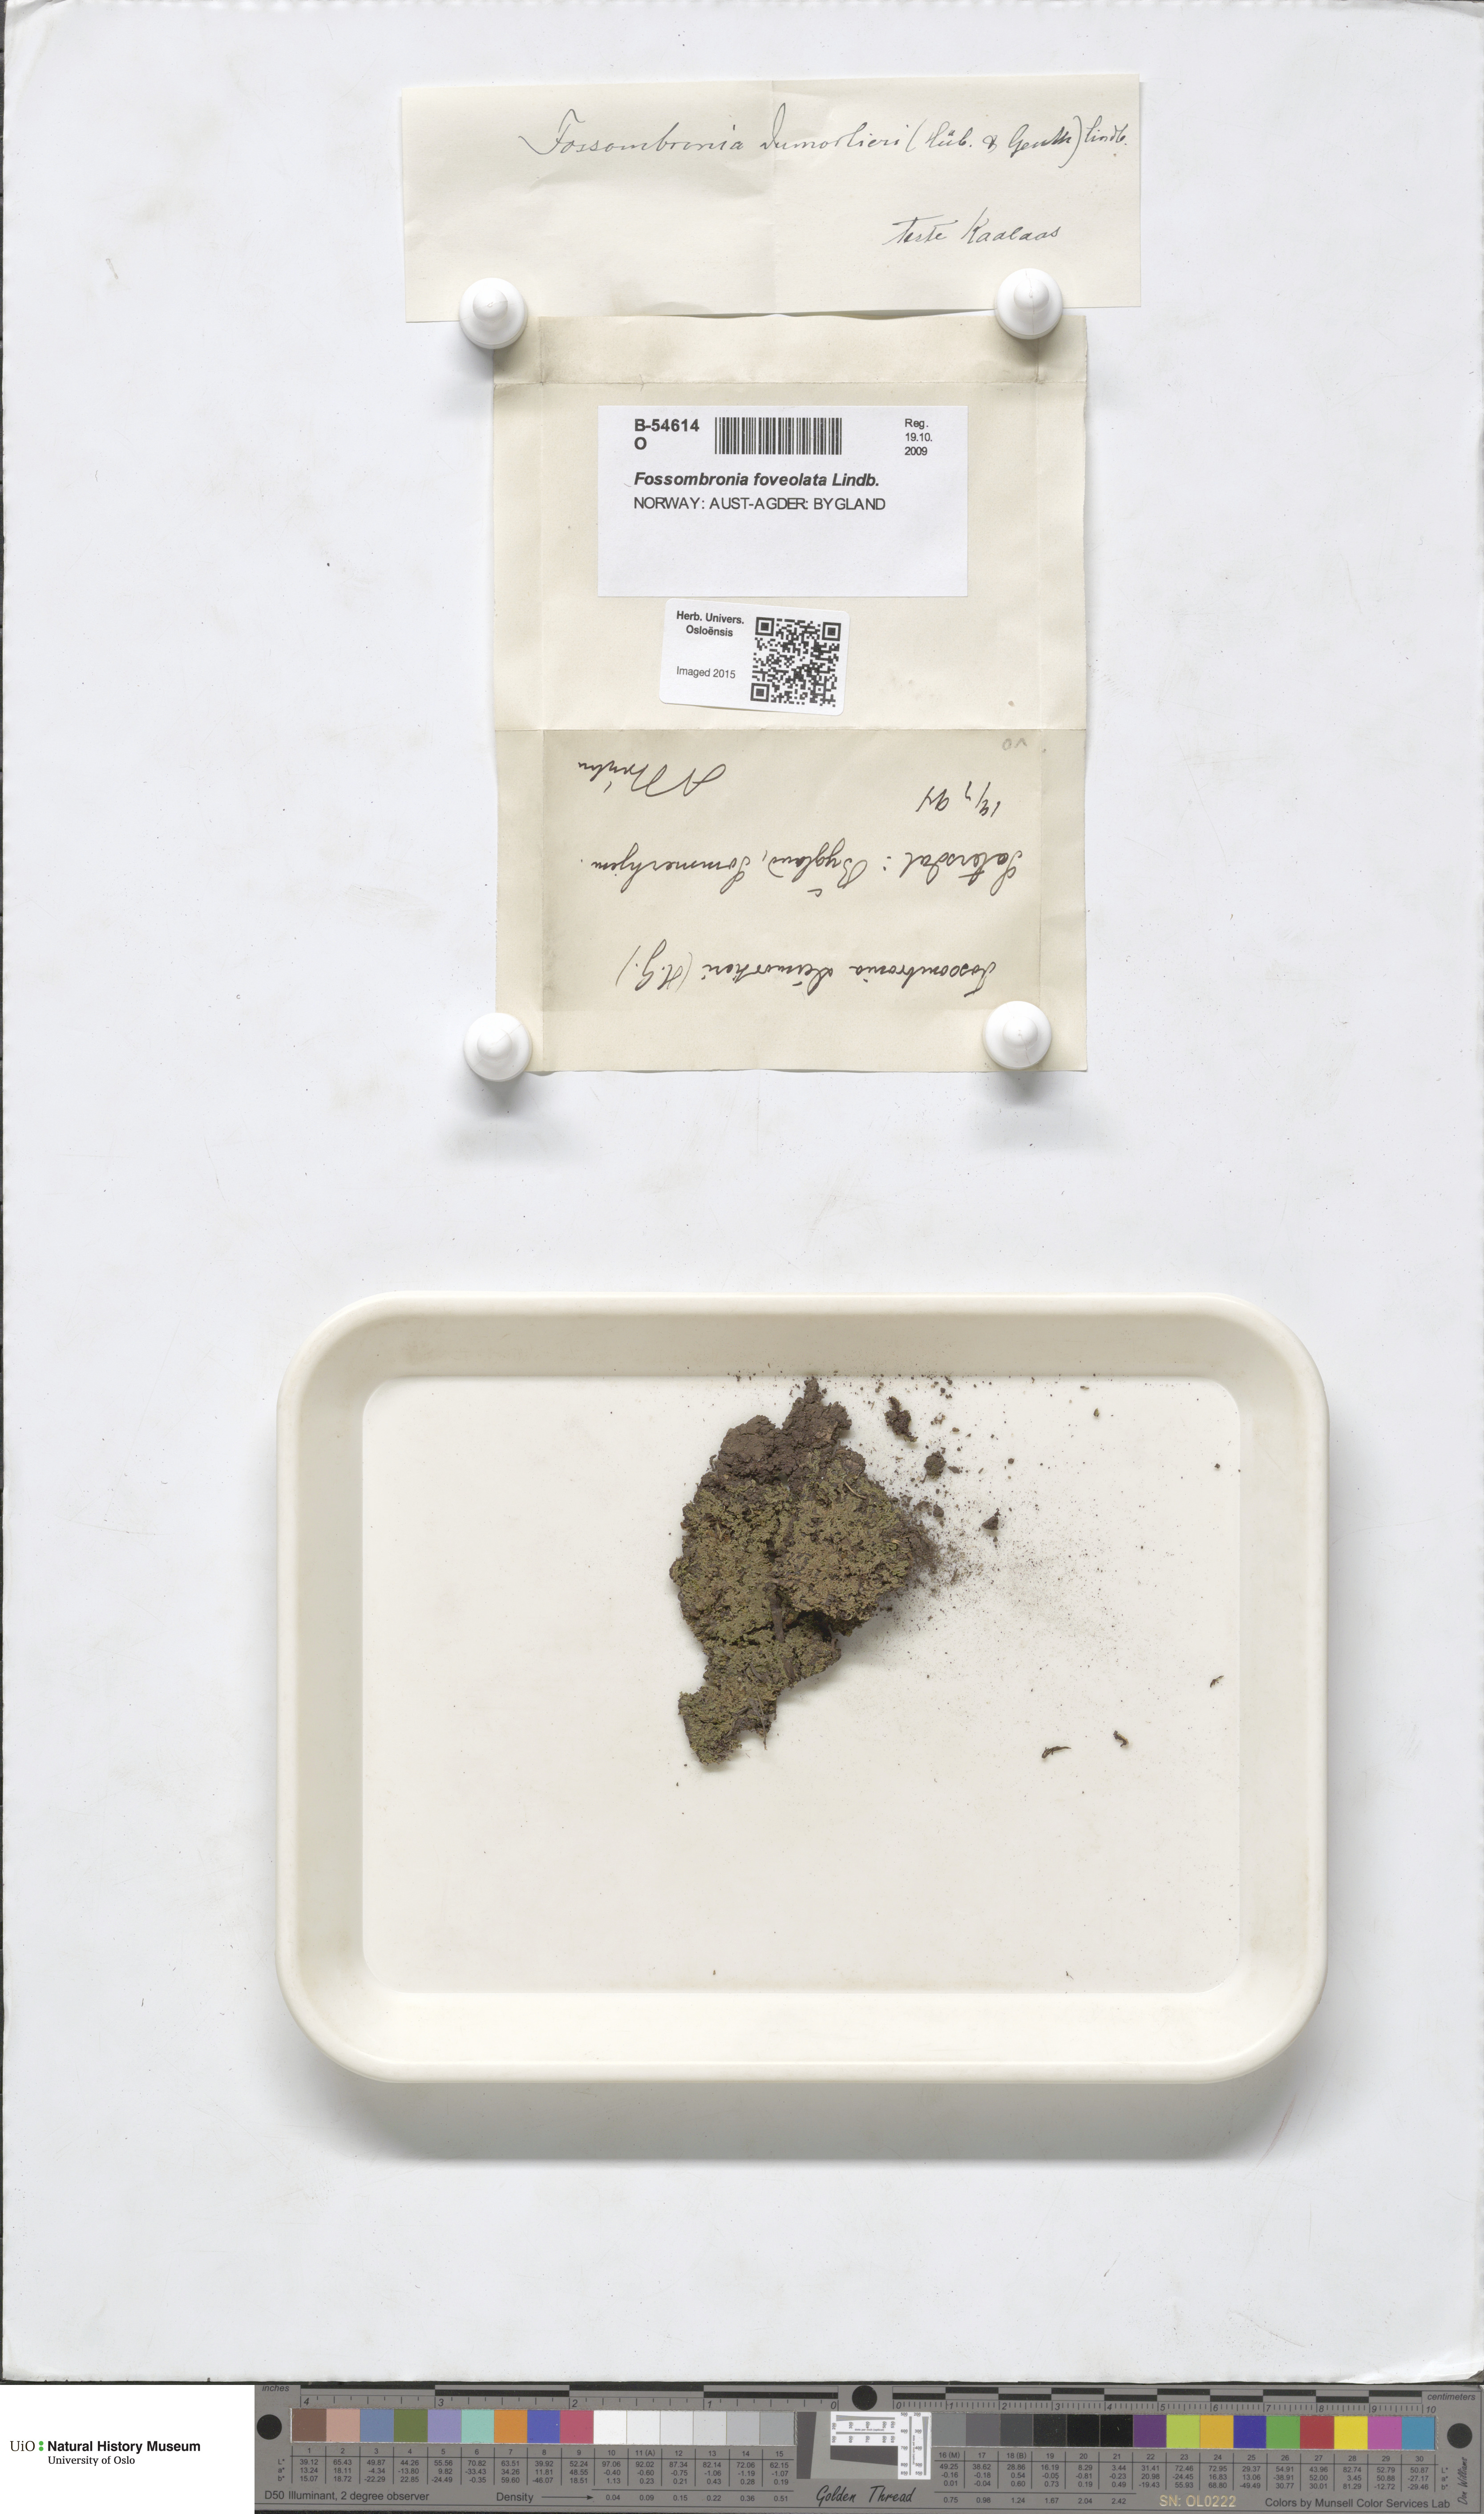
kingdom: Plantae
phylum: Marchantiophyta
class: Jungermanniopsida
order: Fossombroniales
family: Fossombroniaceae
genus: Fossombronia
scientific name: Fossombronia foveolata
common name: Pitted frillwort
